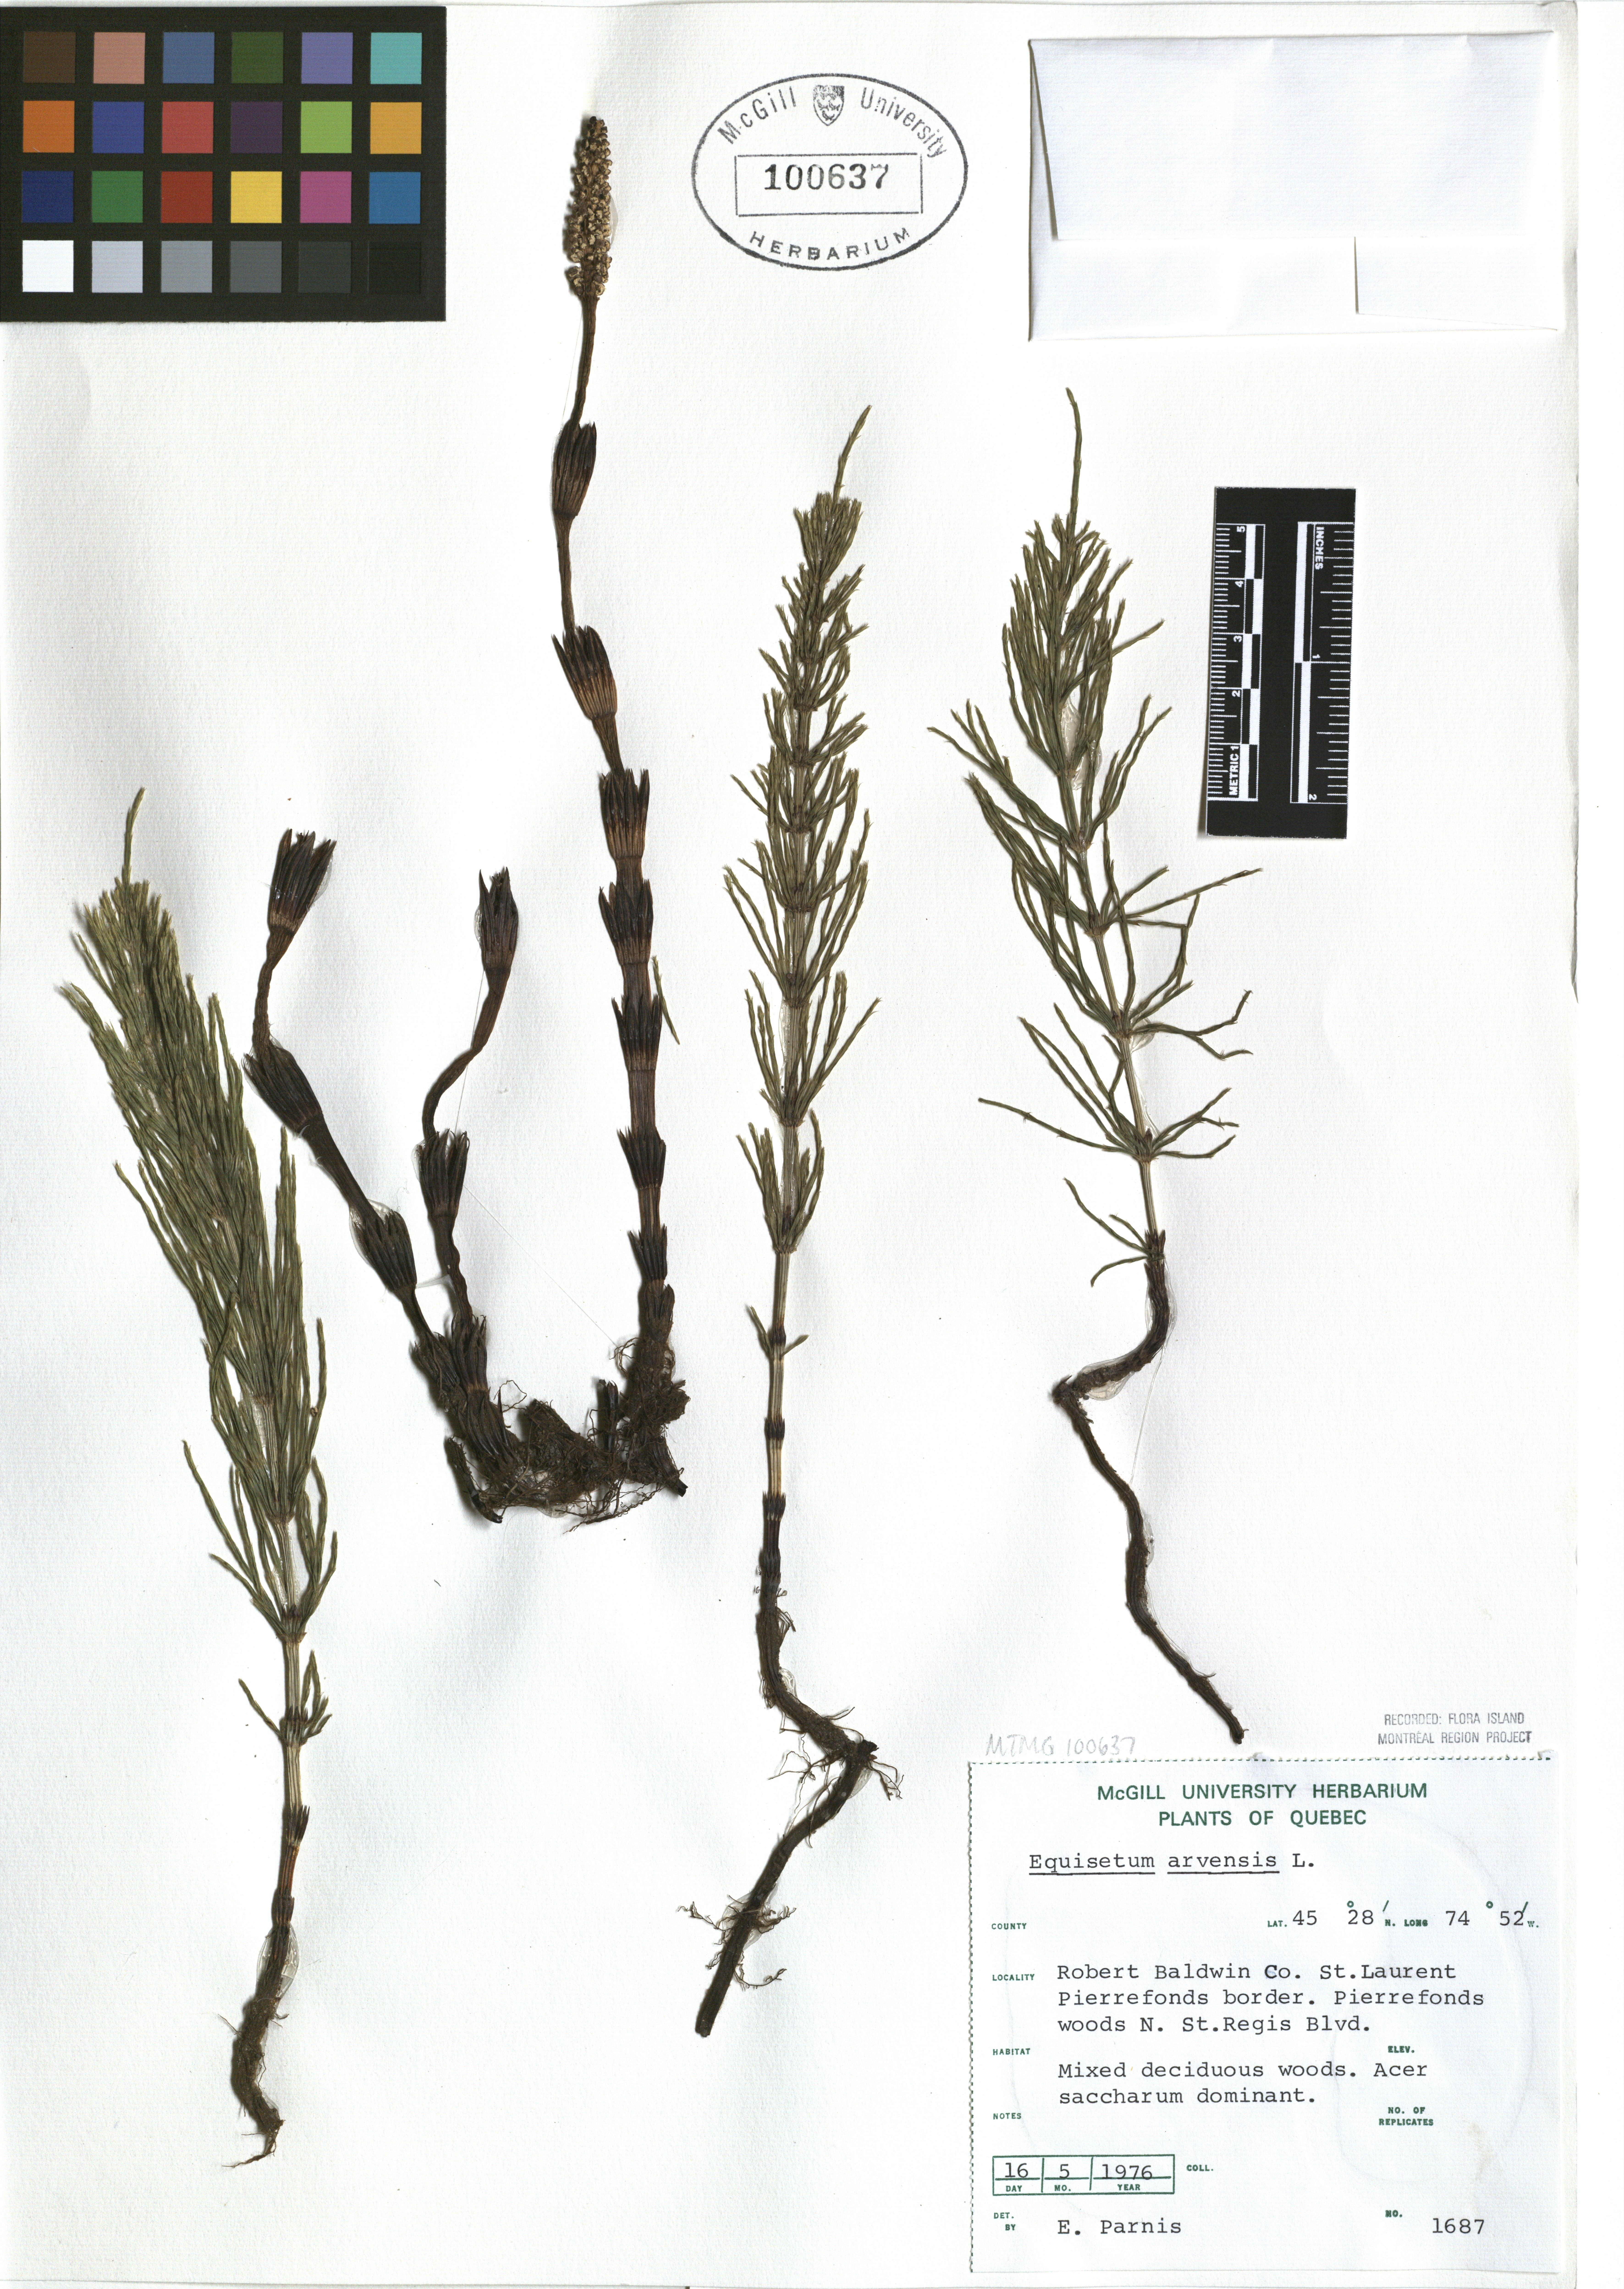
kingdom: Plantae
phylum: Tracheophyta
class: Polypodiopsida
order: Equisetales
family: Equisetaceae
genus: Equisetum
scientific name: Equisetum arvense
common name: Field horsetail
